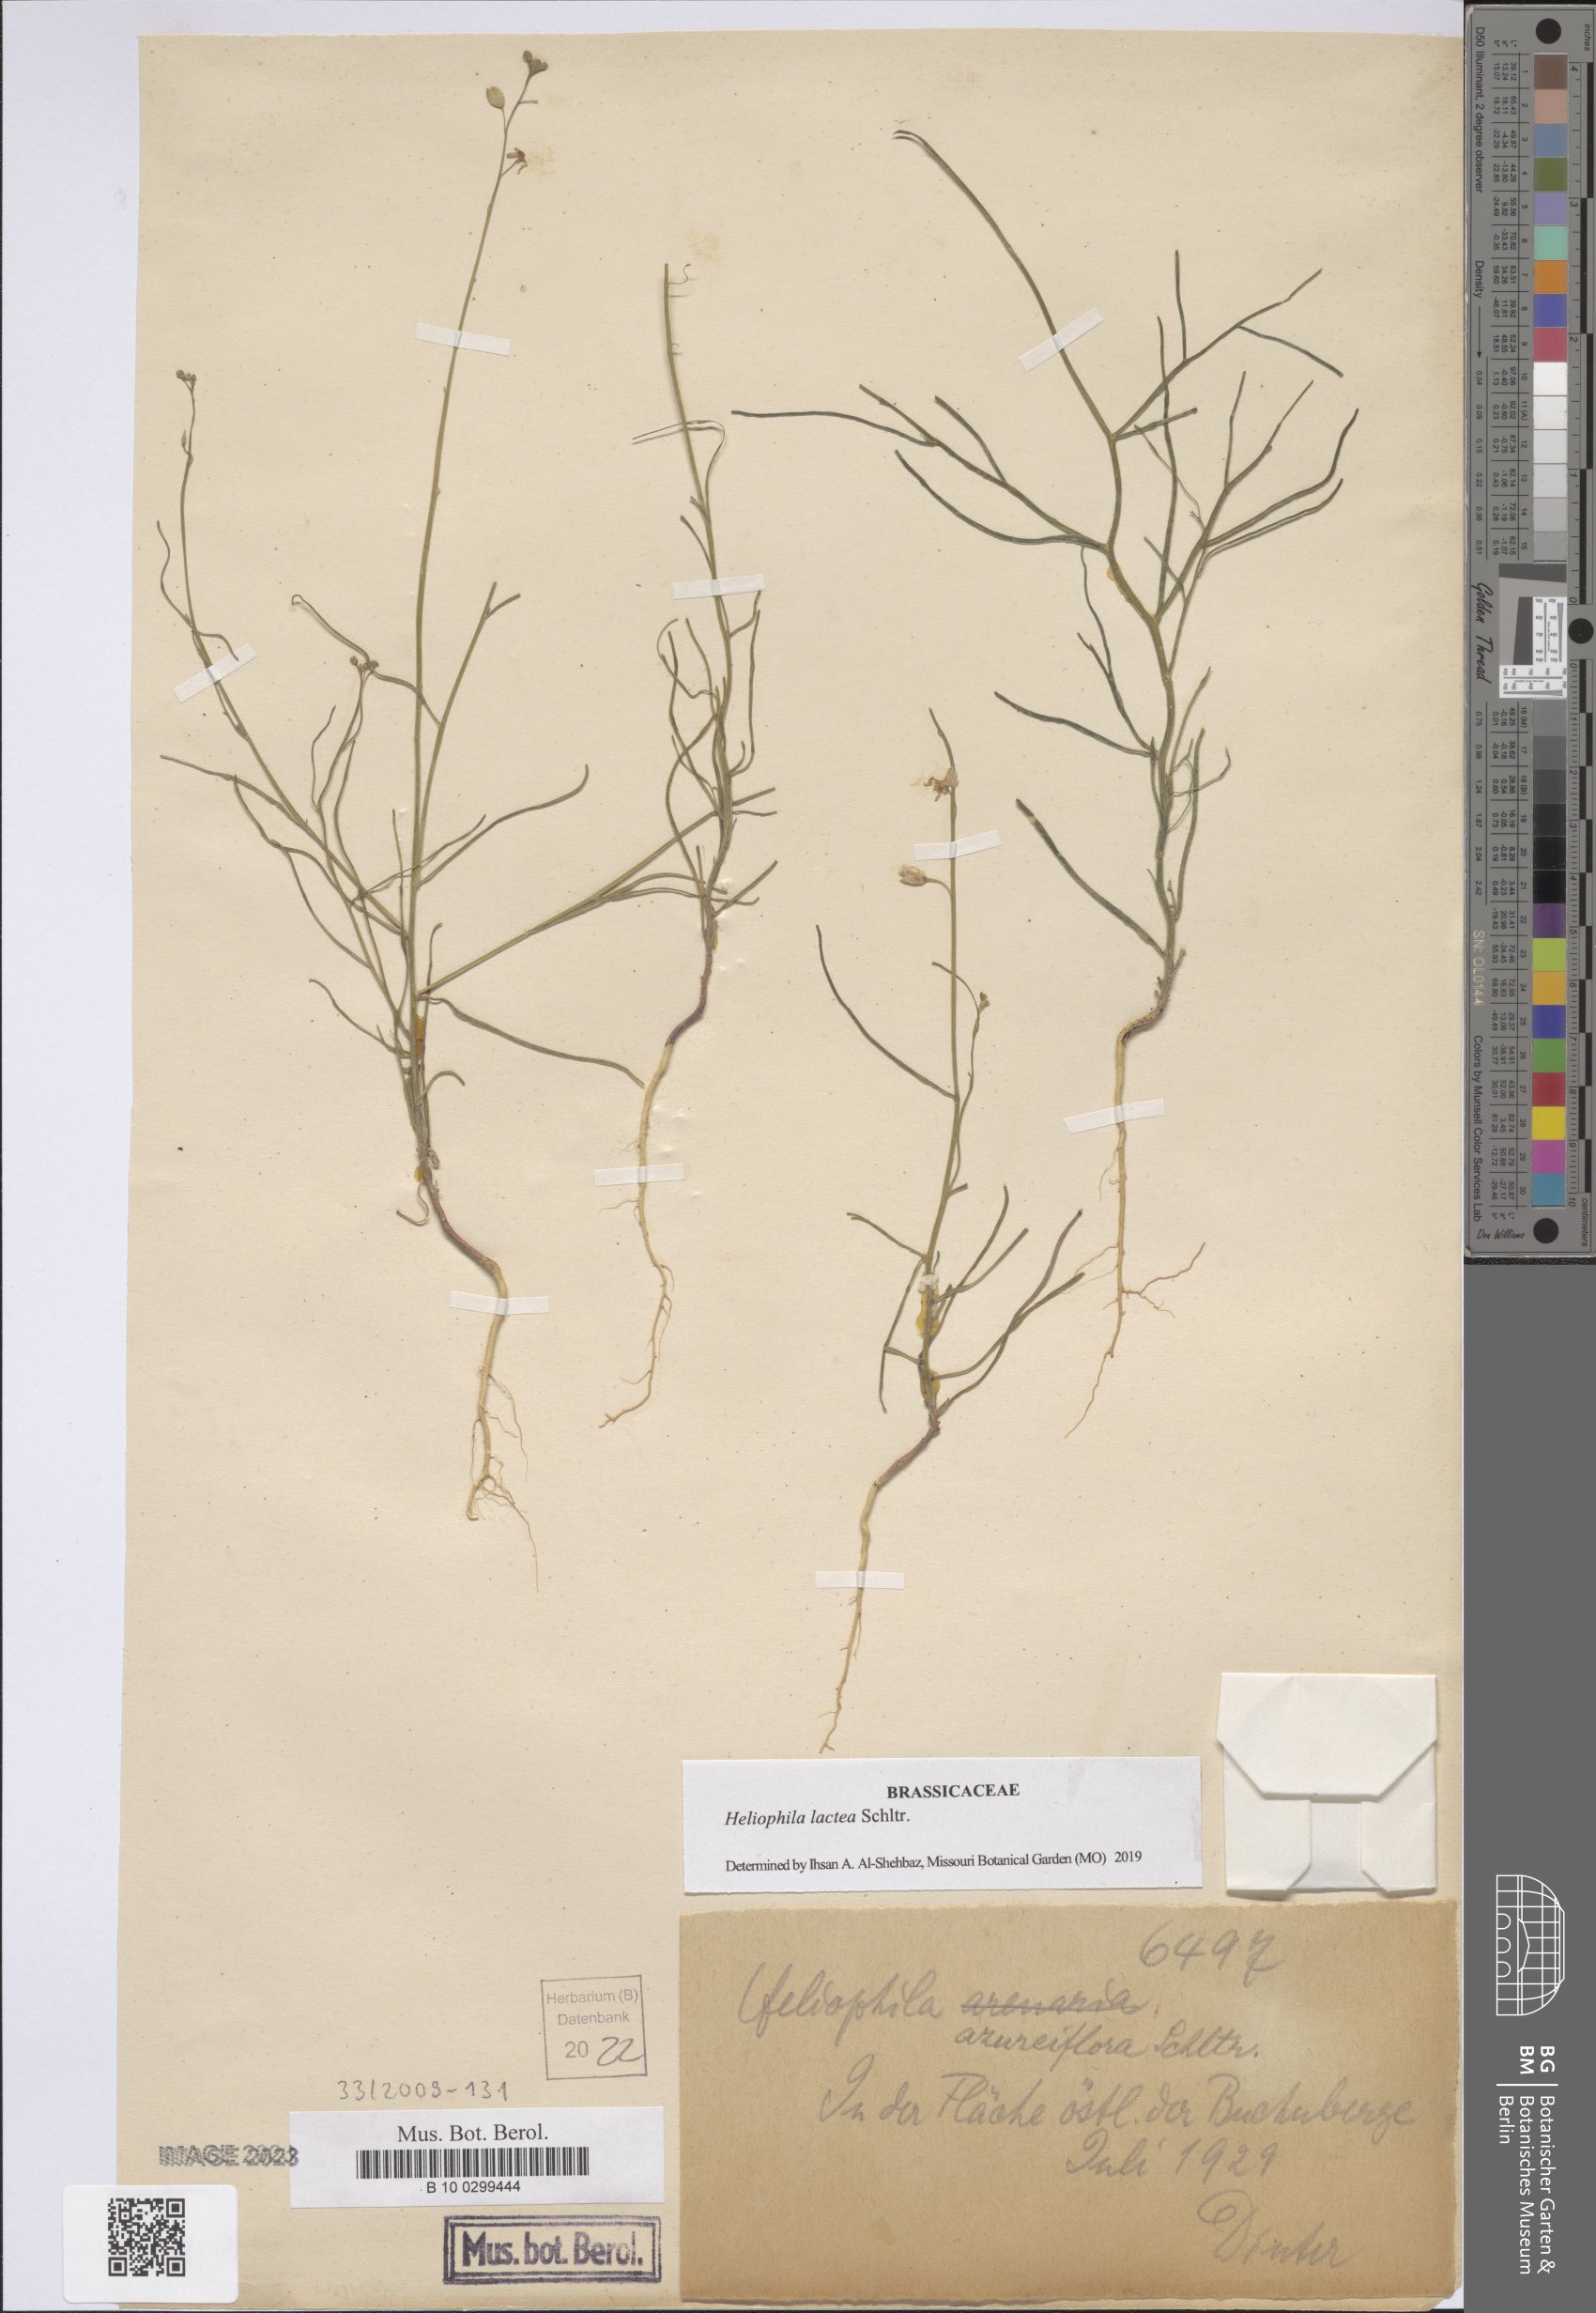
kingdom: Plantae
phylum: Tracheophyta
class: Magnoliopsida
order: Brassicales
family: Brassicaceae
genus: Heliophila
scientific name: Heliophila lactea
